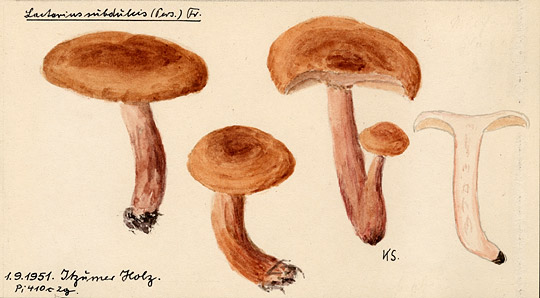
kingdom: Fungi
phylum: Basidiomycota
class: Agaricomycetes
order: Russulales
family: Russulaceae
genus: Lactarius
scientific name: Lactarius
